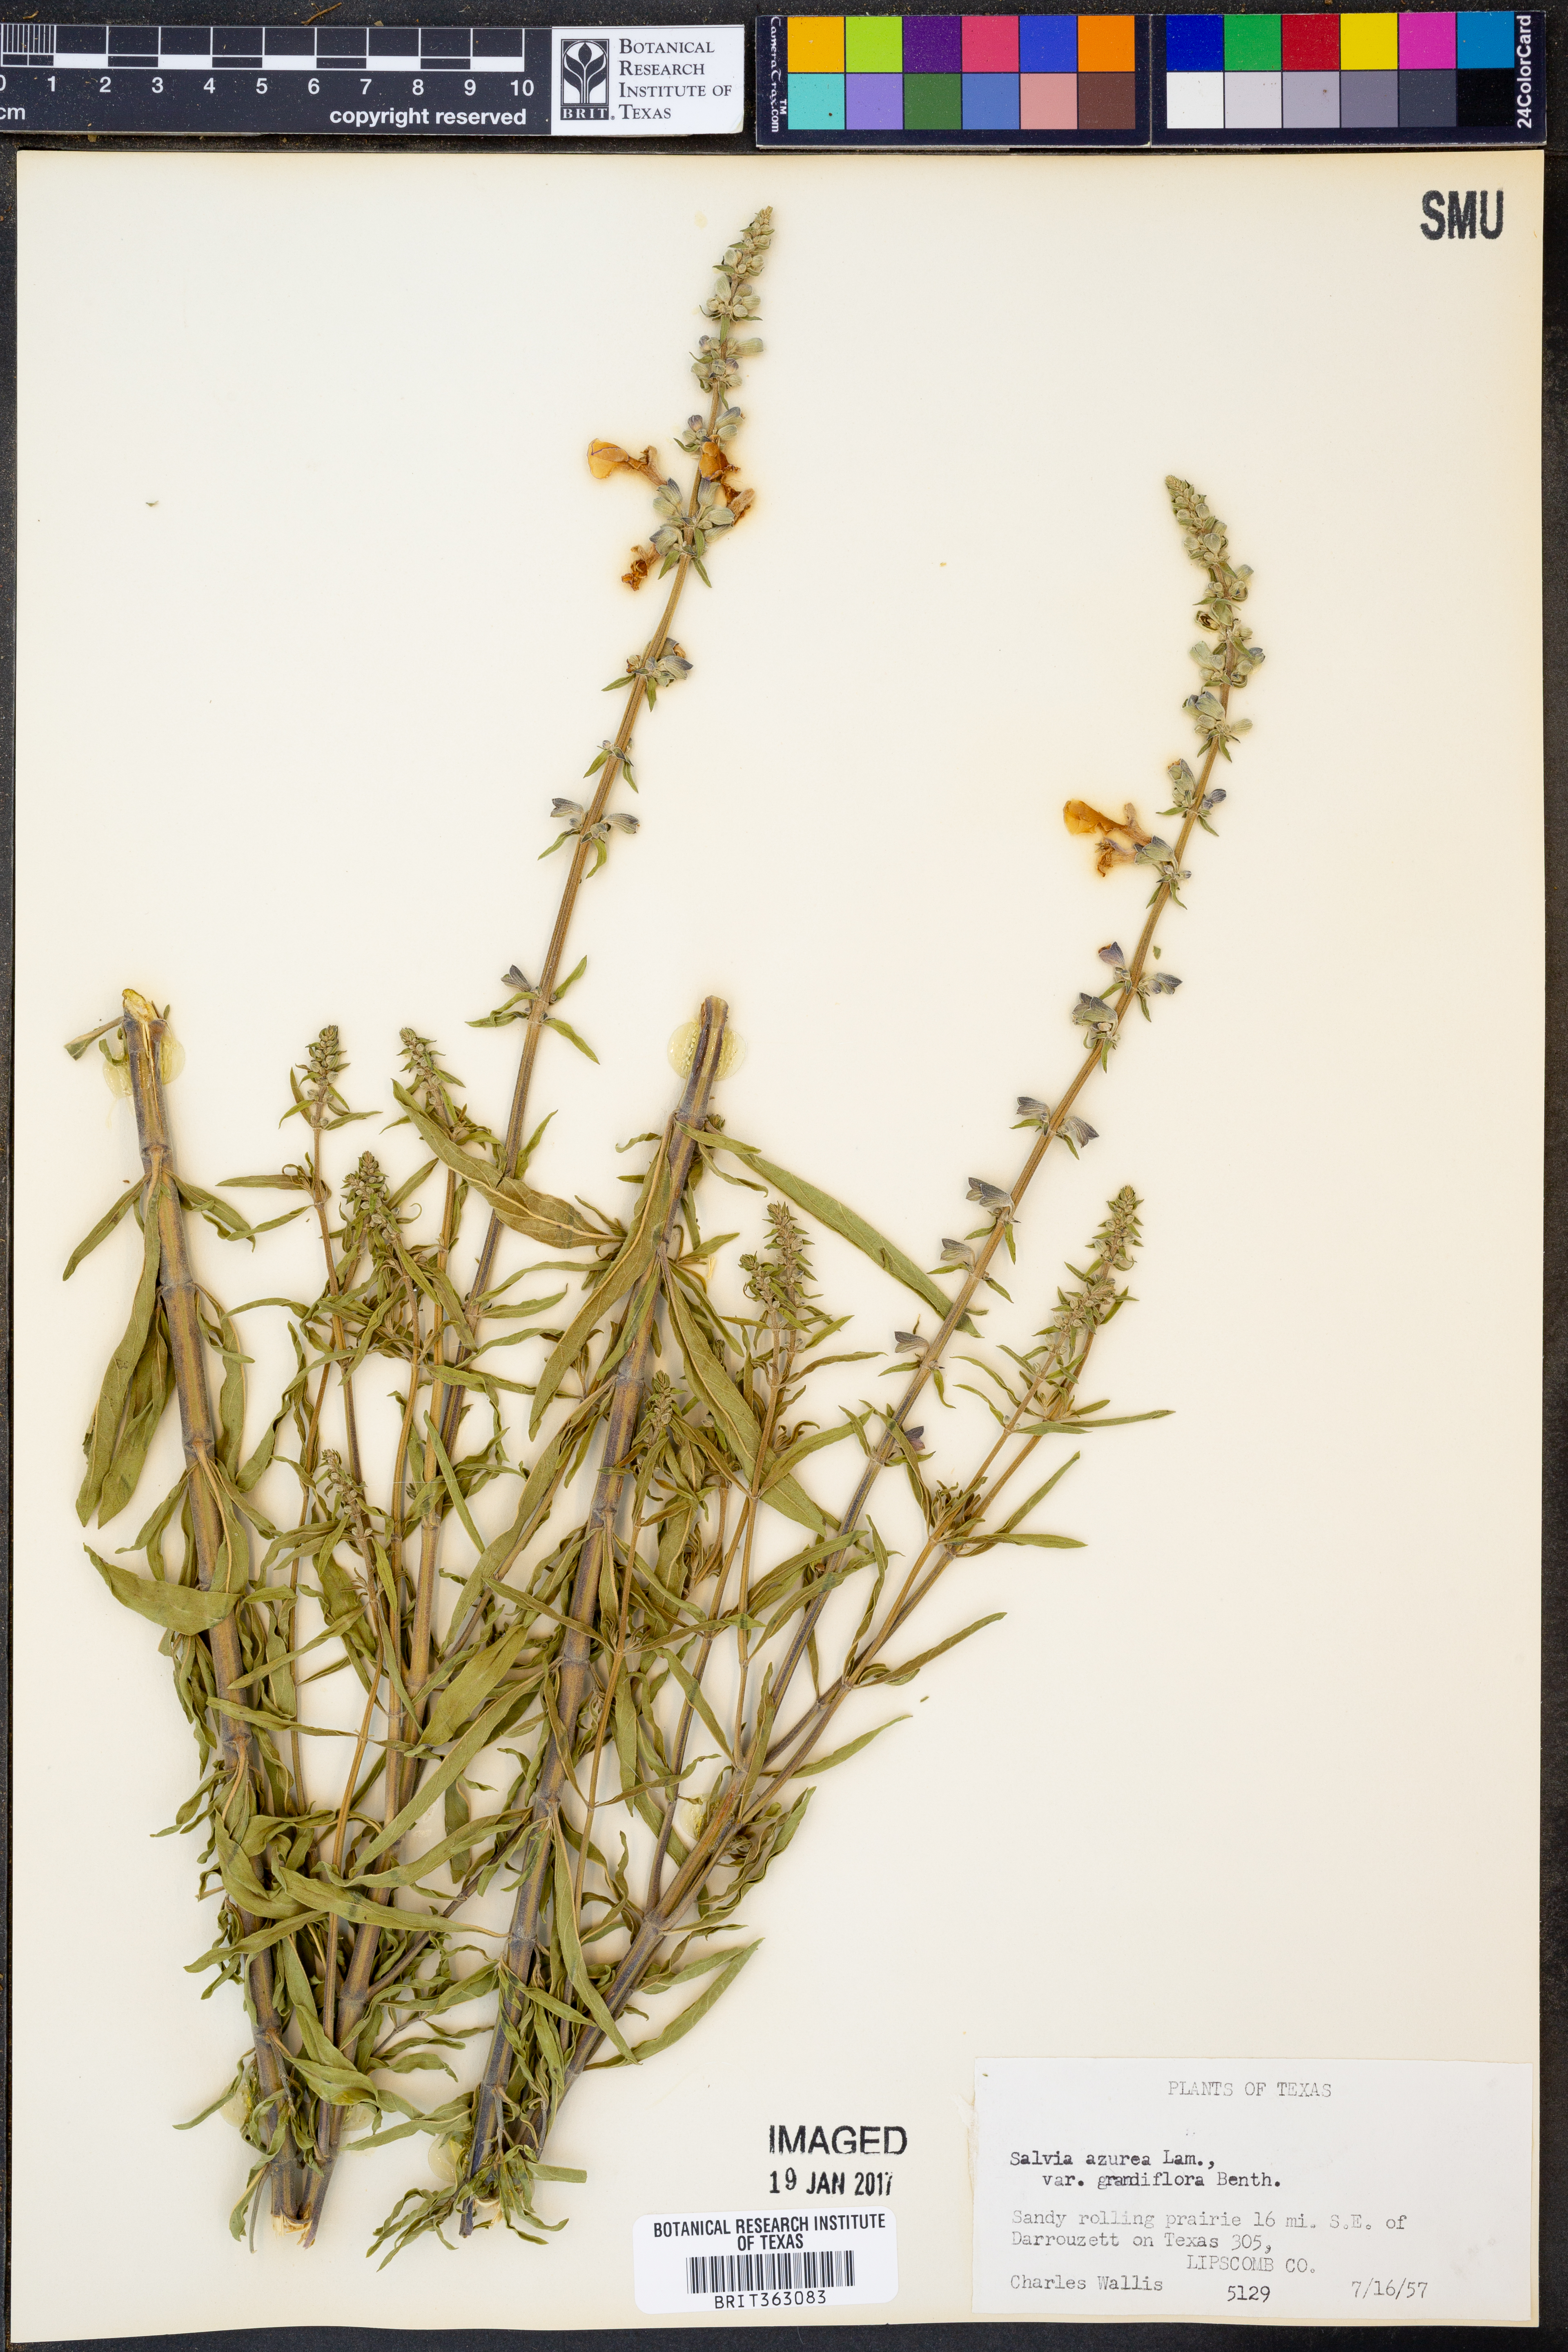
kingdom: Plantae
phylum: Tracheophyta
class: Magnoliopsida
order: Lamiales
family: Lamiaceae
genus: Salvia
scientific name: Salvia azurea
